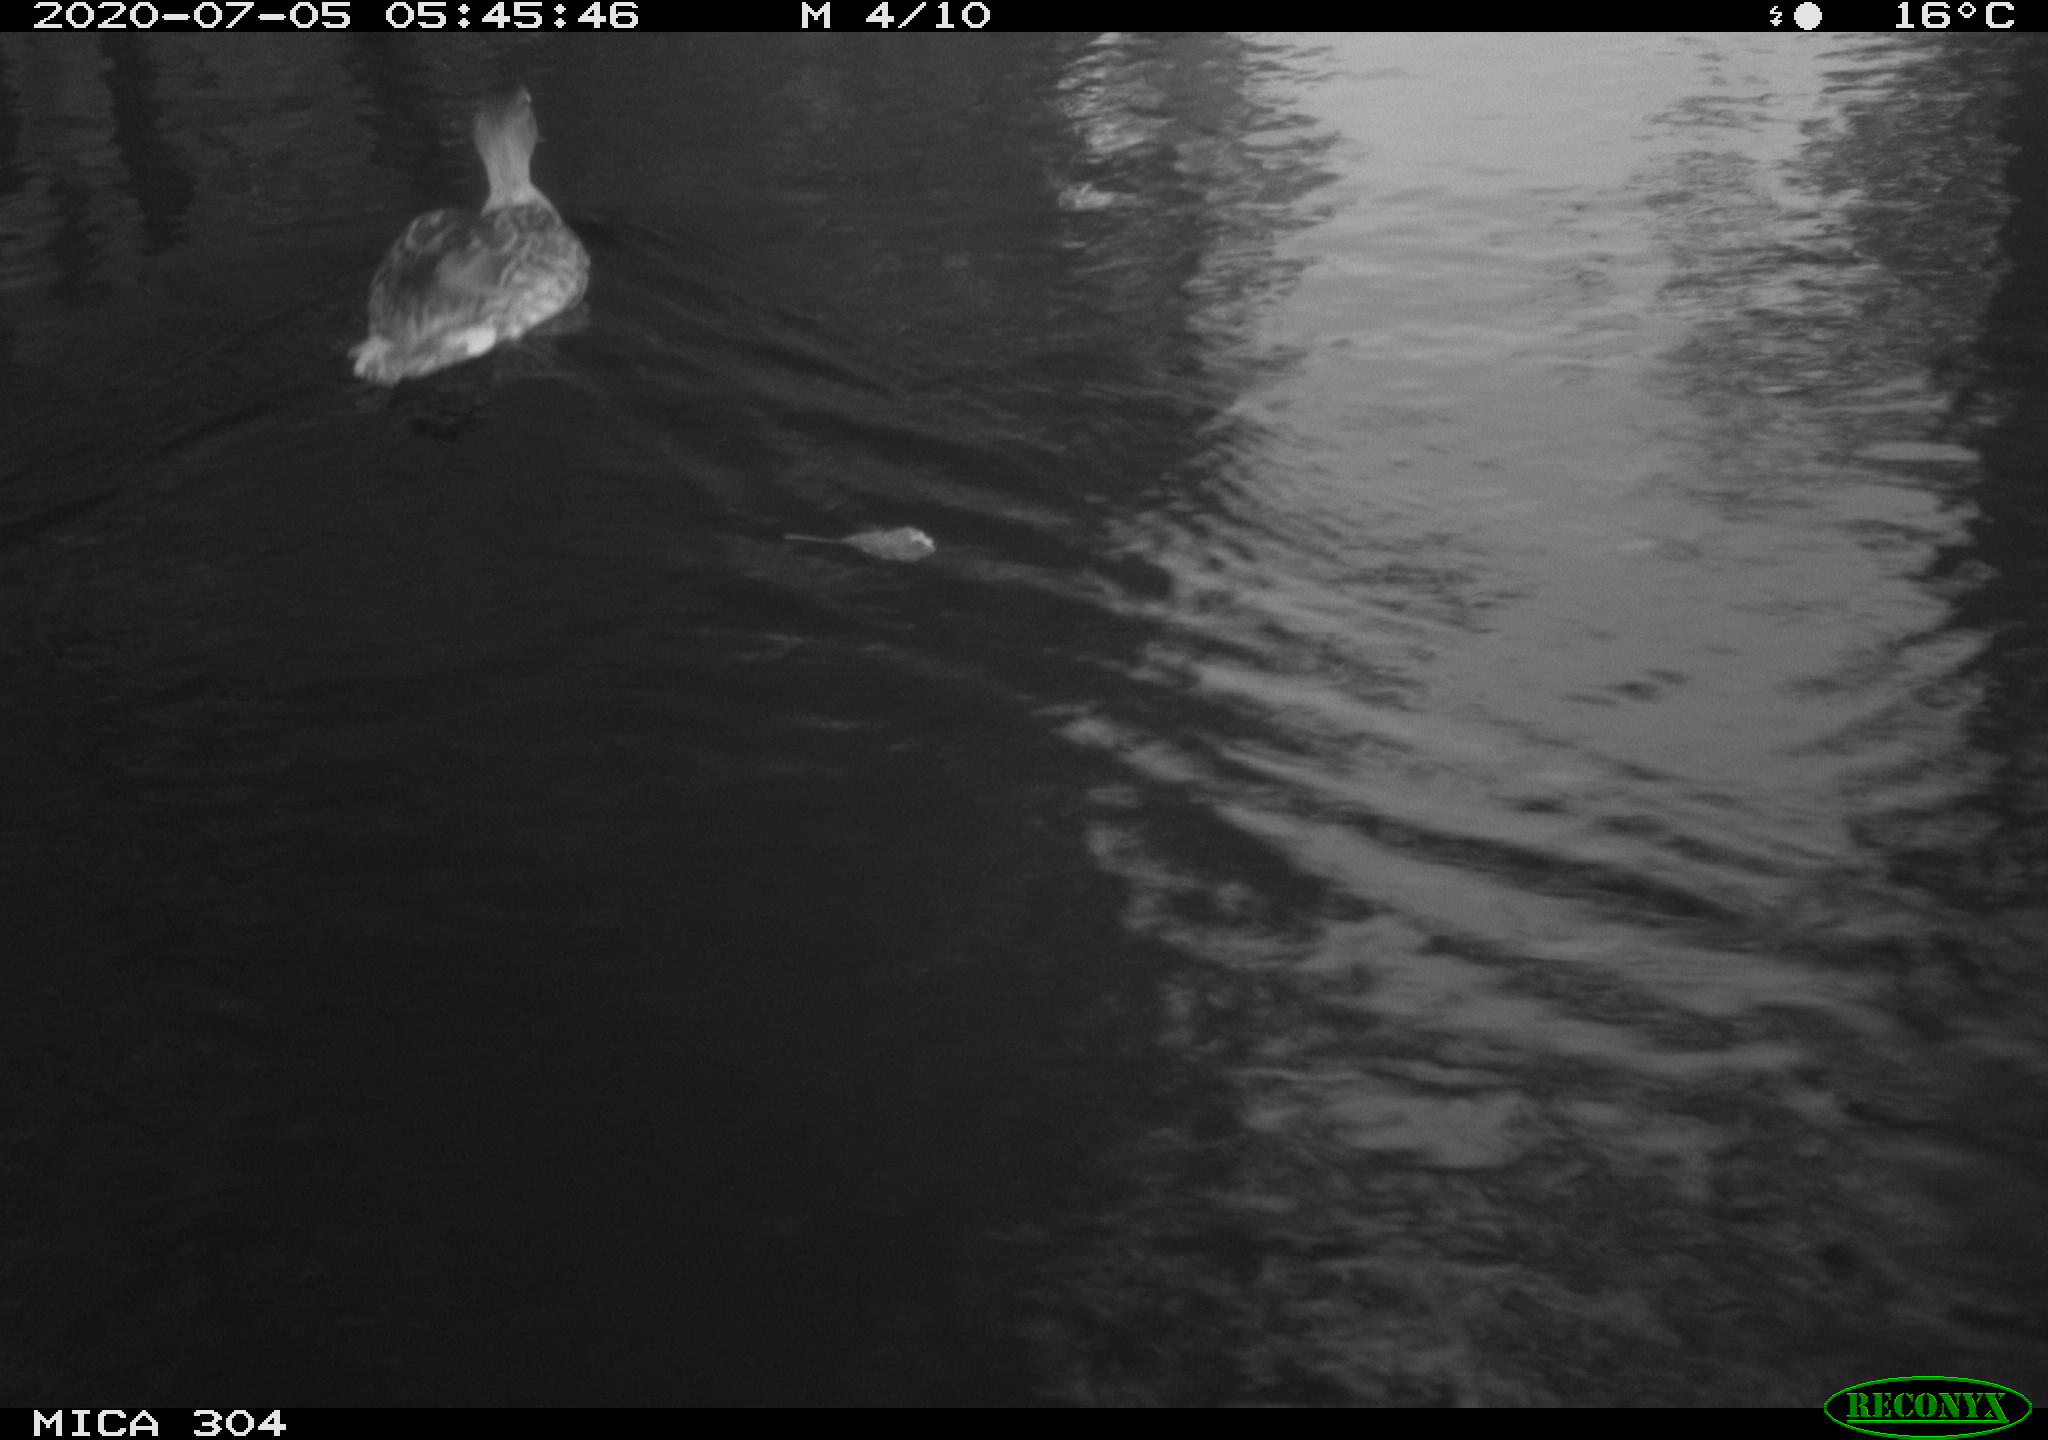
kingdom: Animalia
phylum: Chordata
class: Aves
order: Anseriformes
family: Anatidae
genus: Anas
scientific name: Anas platyrhynchos
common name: Mallard
